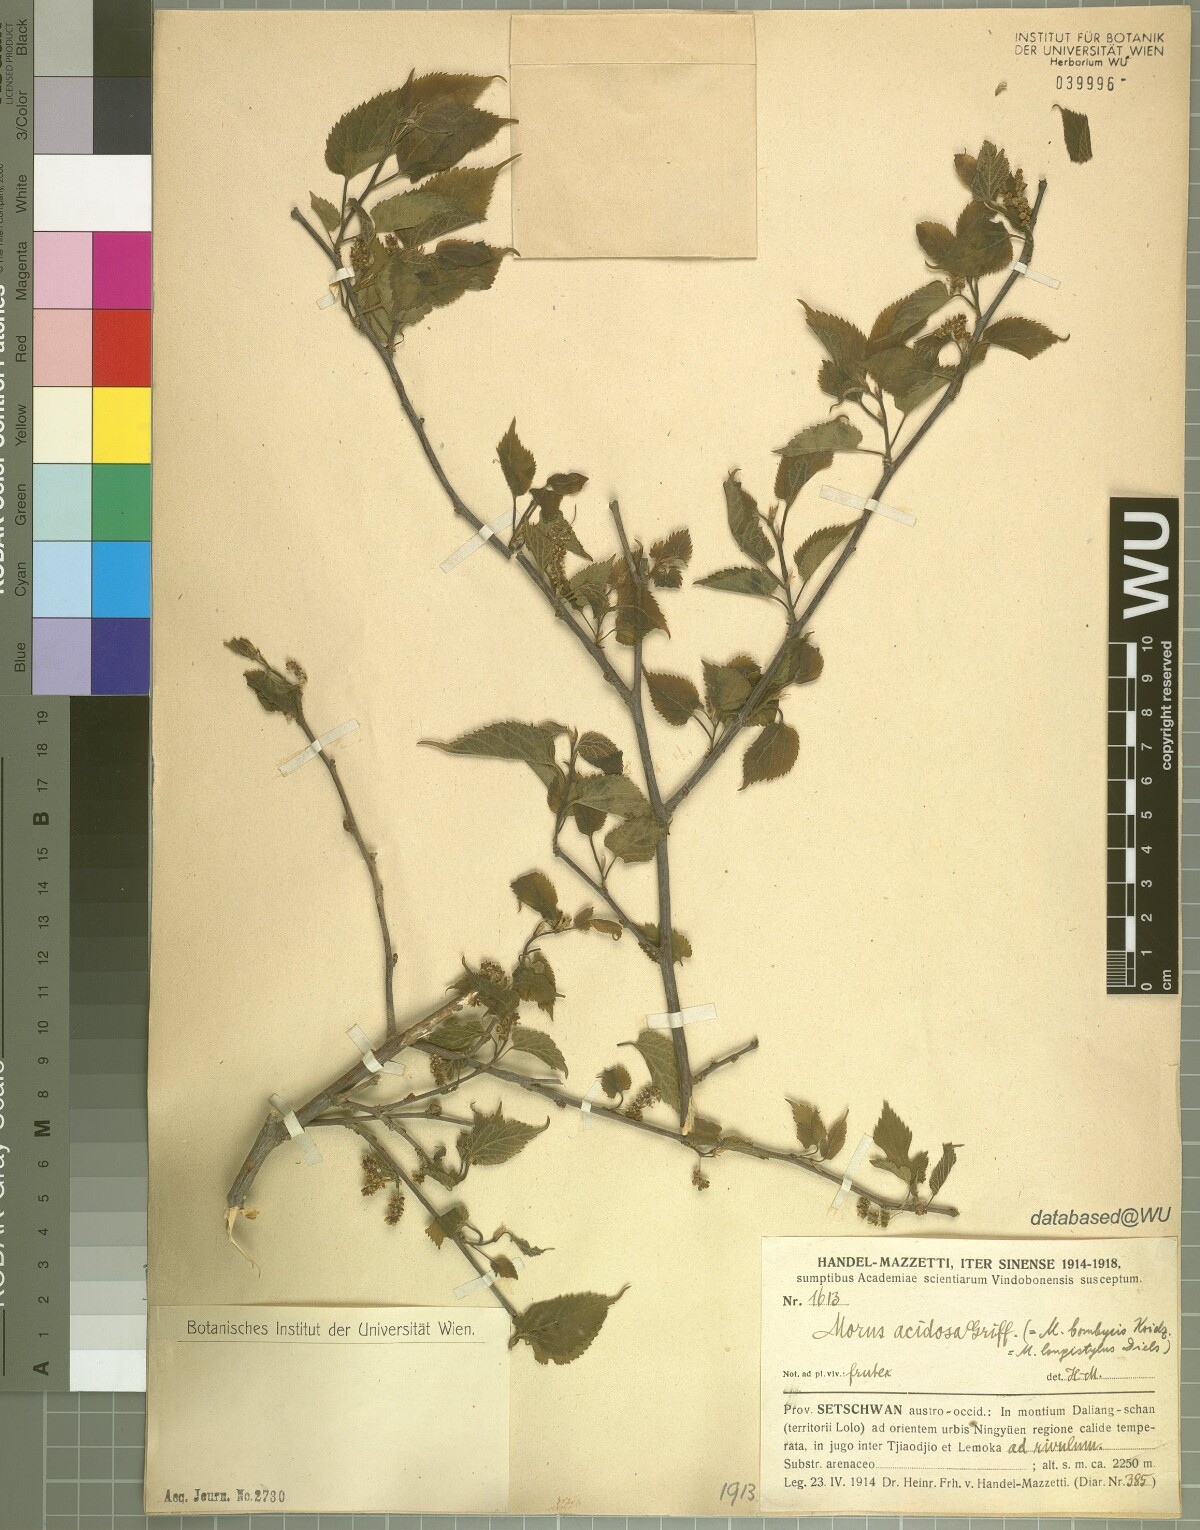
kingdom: Plantae
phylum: Tracheophyta
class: Magnoliopsida
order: Rosales
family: Moraceae
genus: Broussonetia
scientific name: Broussonetia papyrifera
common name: Paper mulberry
